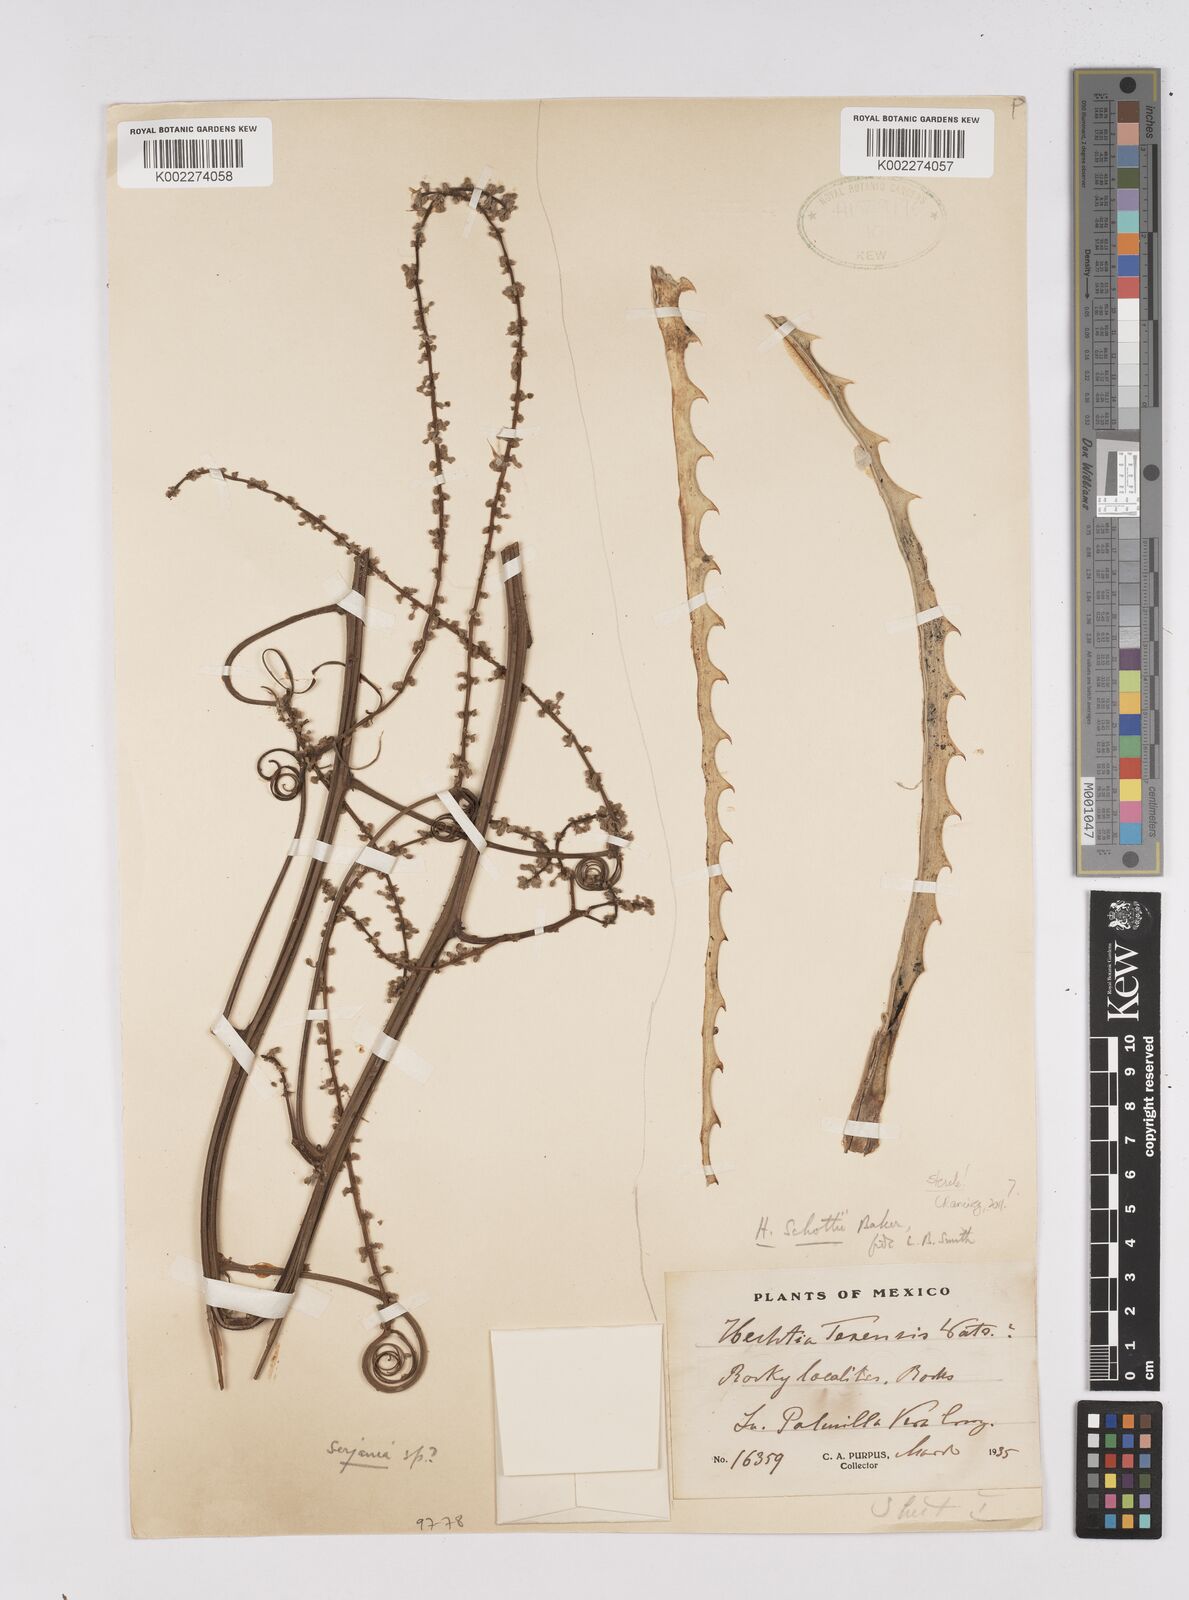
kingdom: Plantae
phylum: Tracheophyta
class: Liliopsida
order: Poales
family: Bromeliaceae
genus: Hechtia
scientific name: Hechtia texensis
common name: False agave
